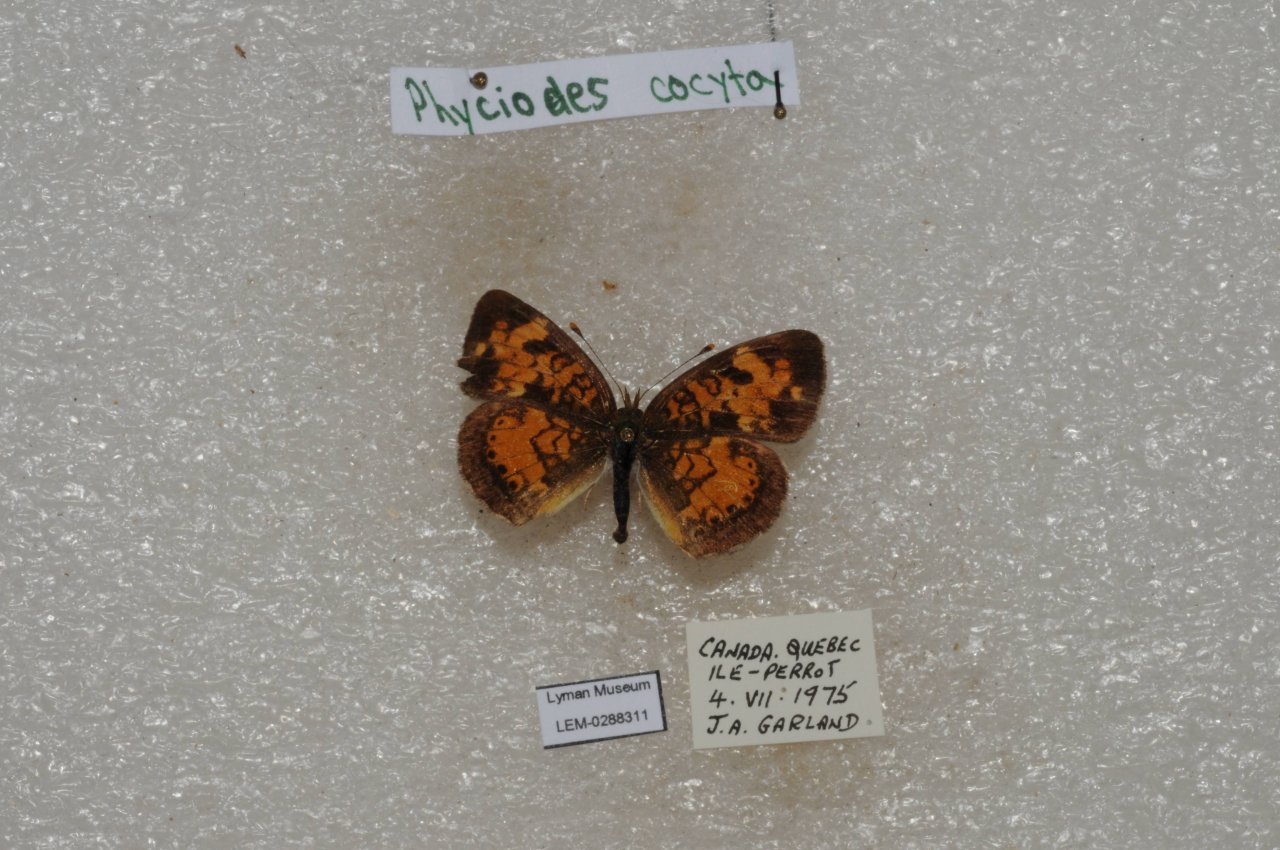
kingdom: Animalia
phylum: Arthropoda
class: Insecta
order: Lepidoptera
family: Nymphalidae
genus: Phyciodes
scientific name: Phyciodes tharos
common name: Northern Crescent
